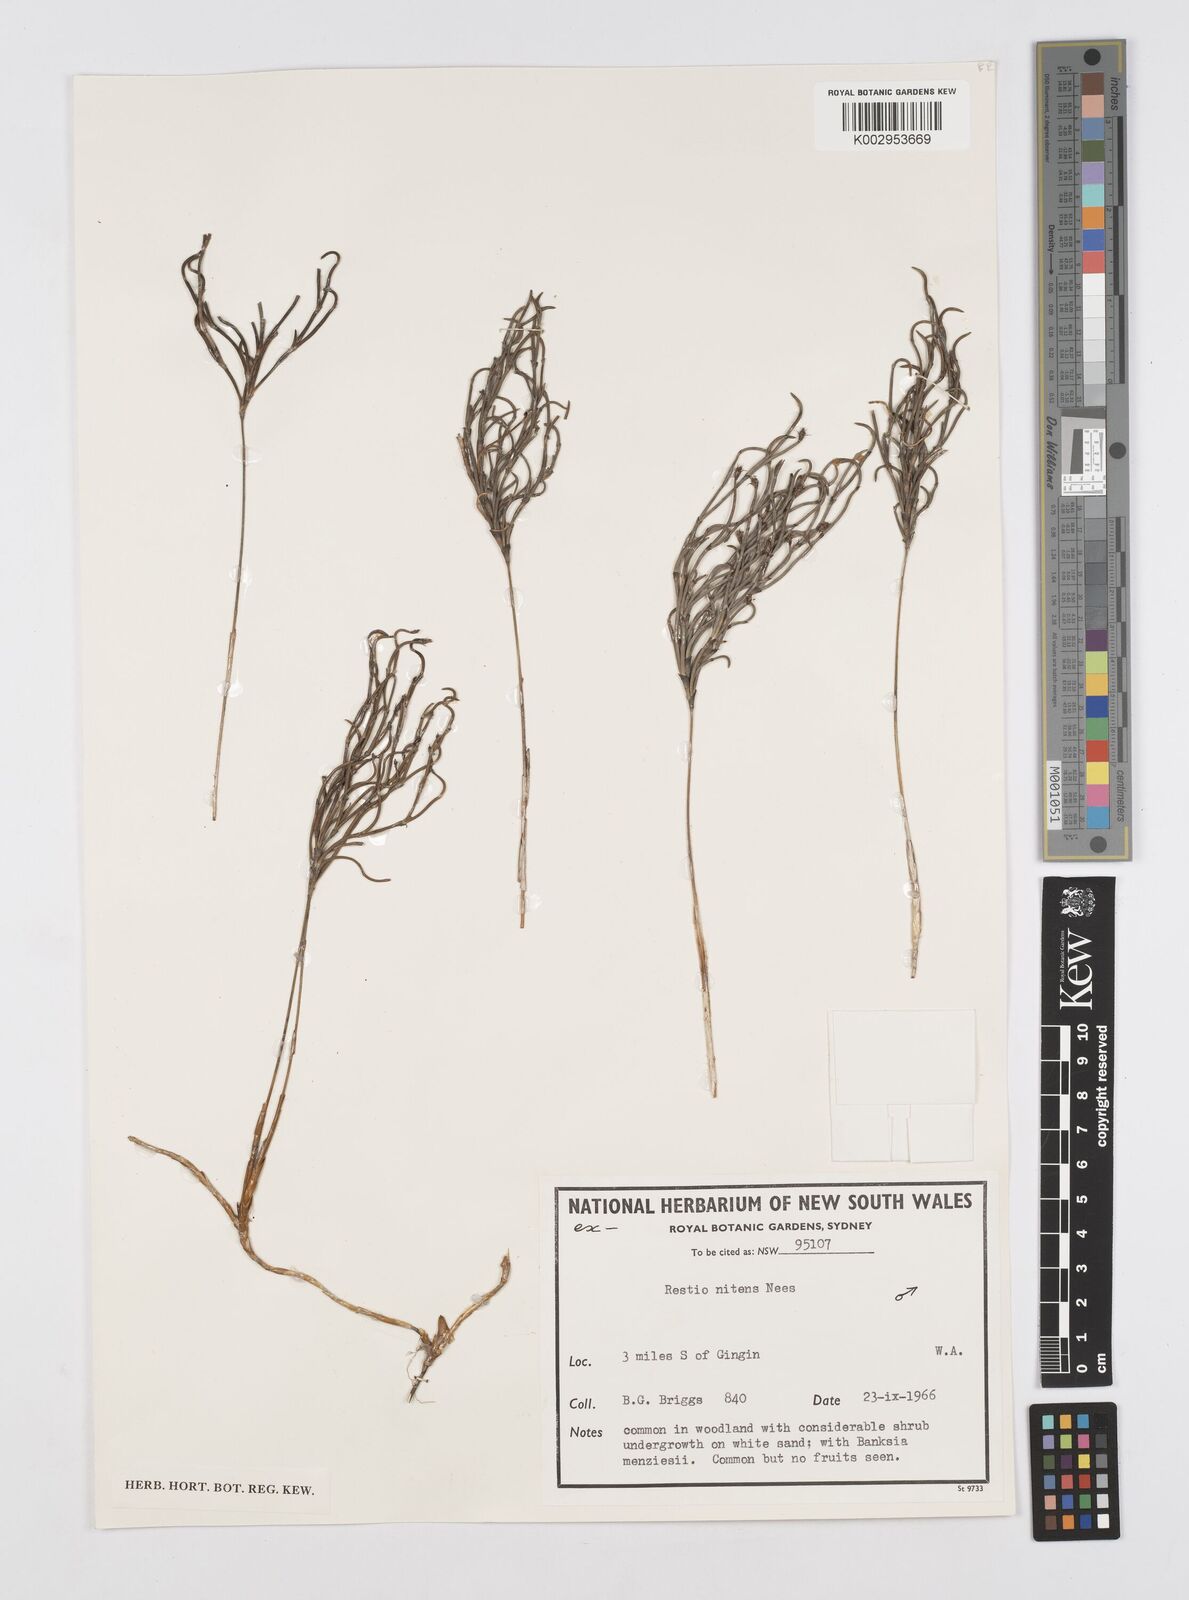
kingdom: Plantae
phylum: Tracheophyta
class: Liliopsida
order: Poales
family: Restionaceae
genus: Alexgeorgea
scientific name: Alexgeorgea nitens
